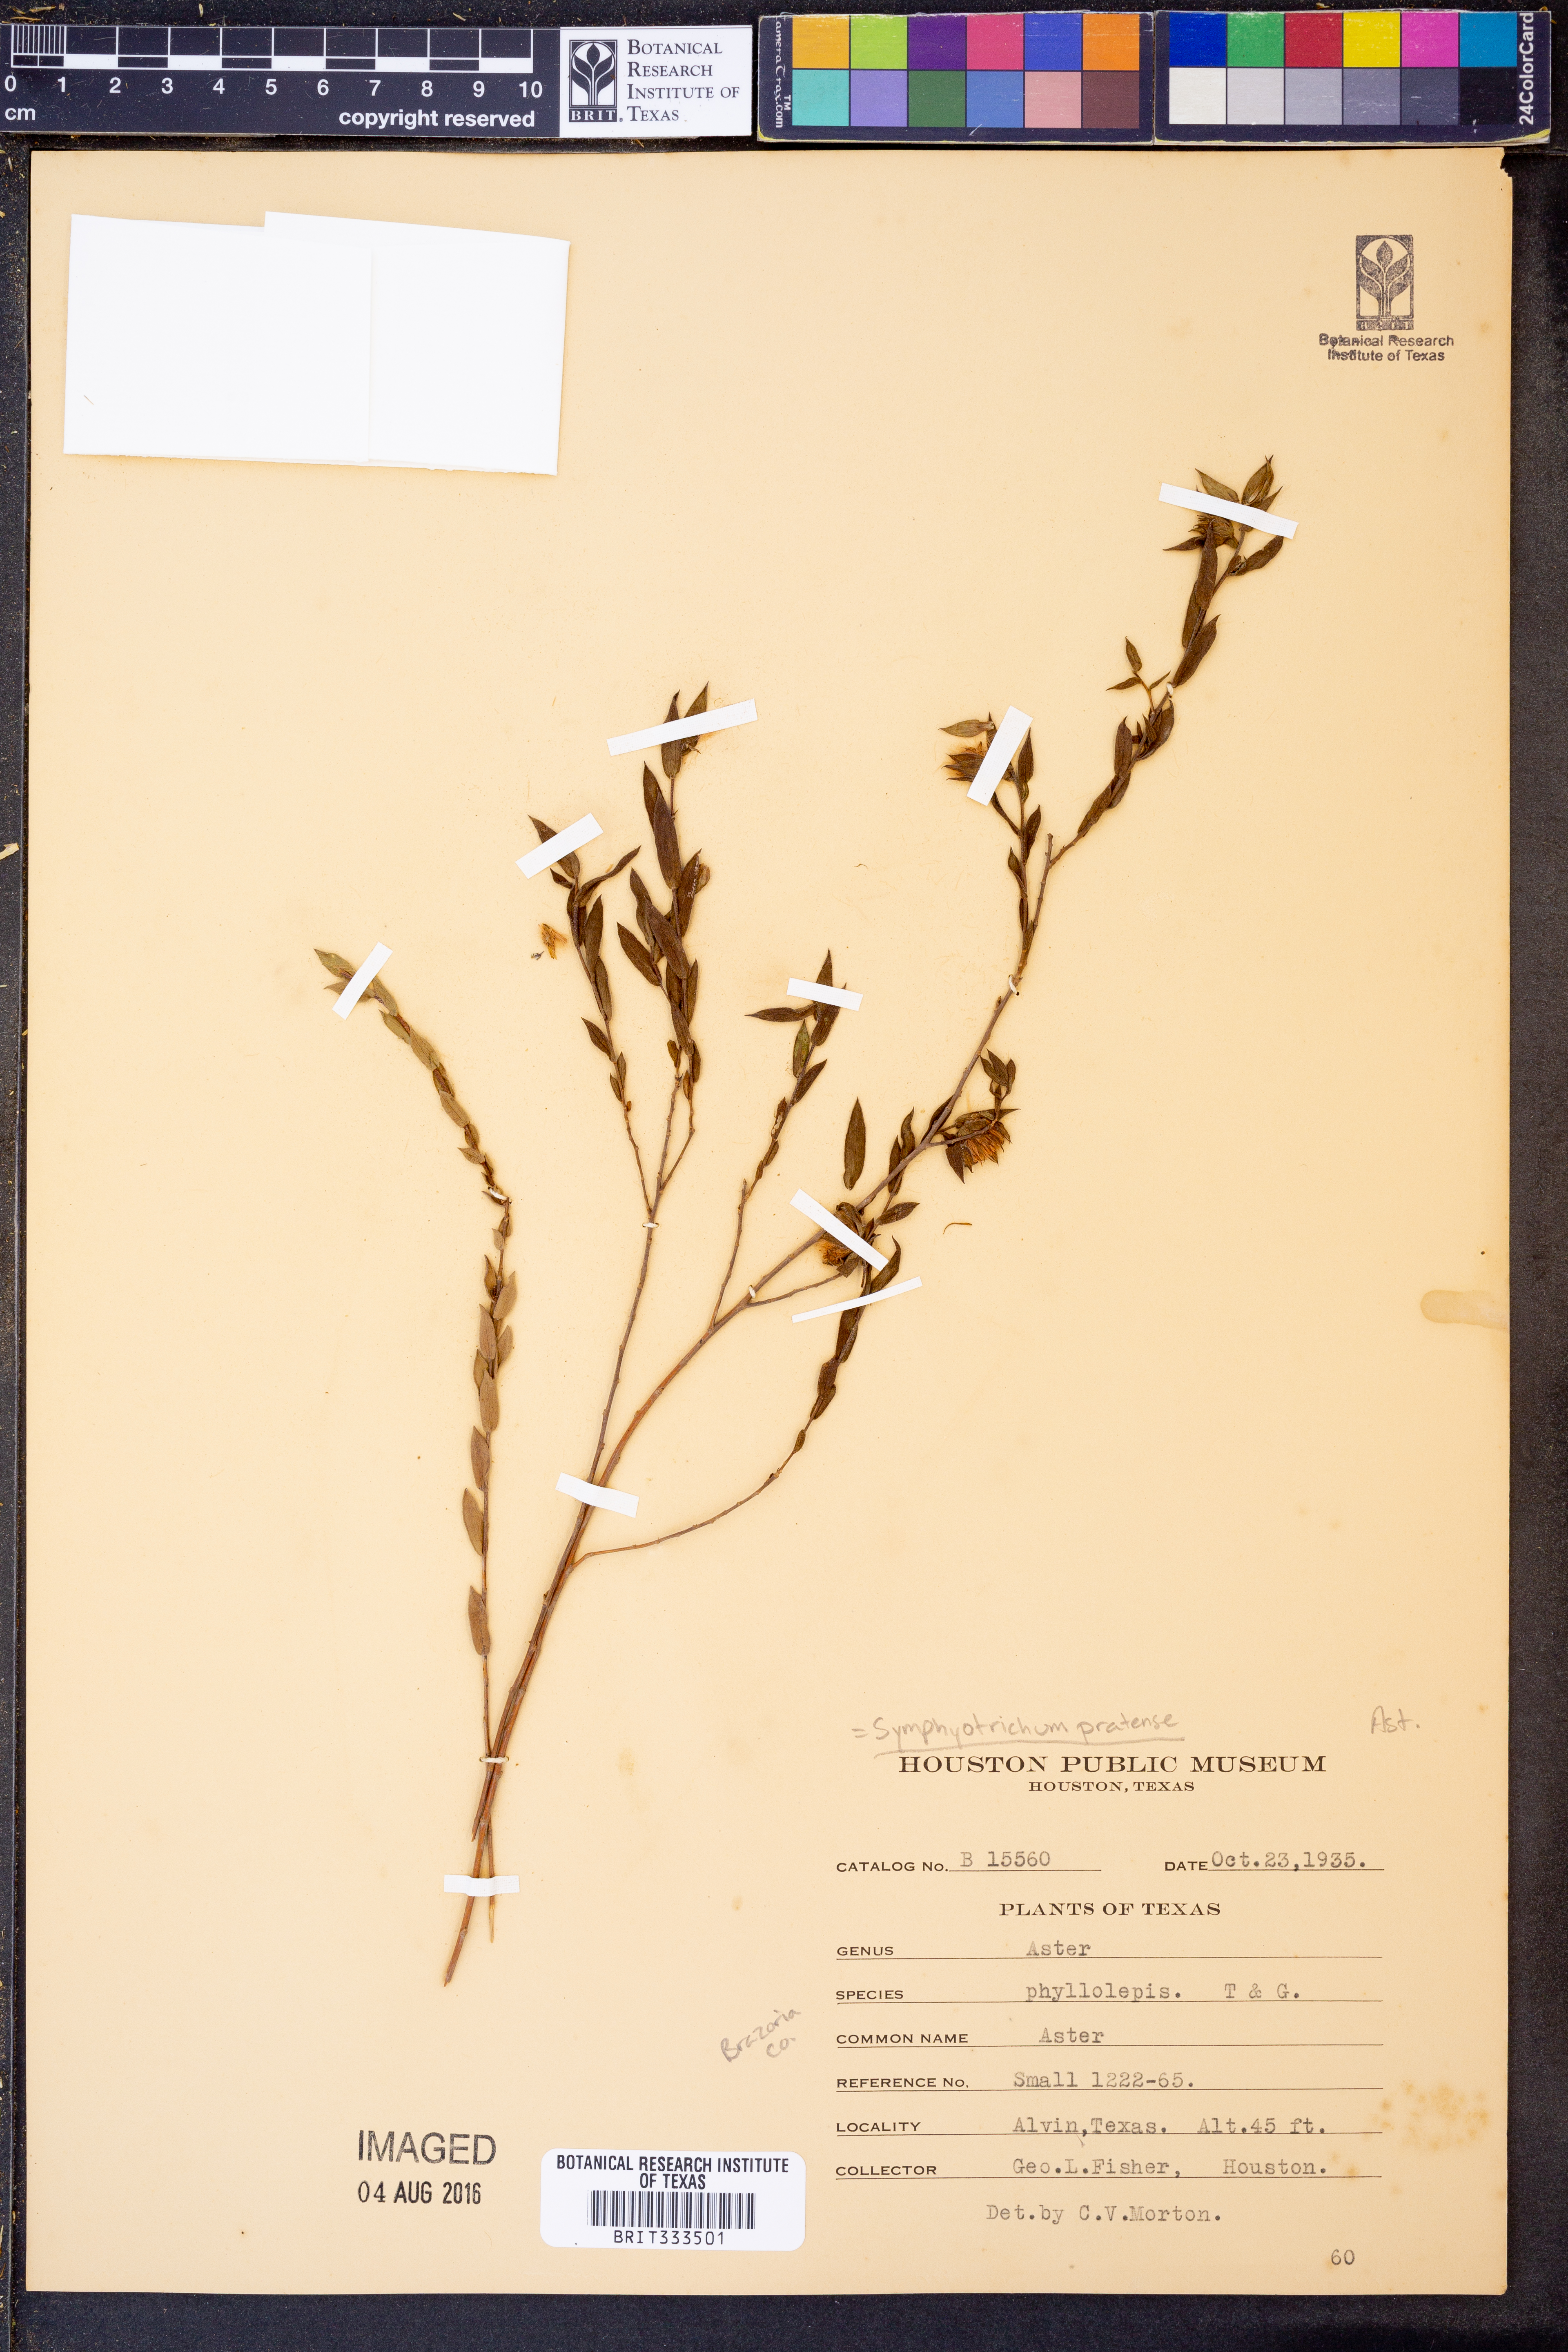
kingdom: Plantae
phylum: Tracheophyta
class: Magnoliopsida
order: Asterales
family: Asteraceae
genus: Symphyotrichum
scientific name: Symphyotrichum pratense
